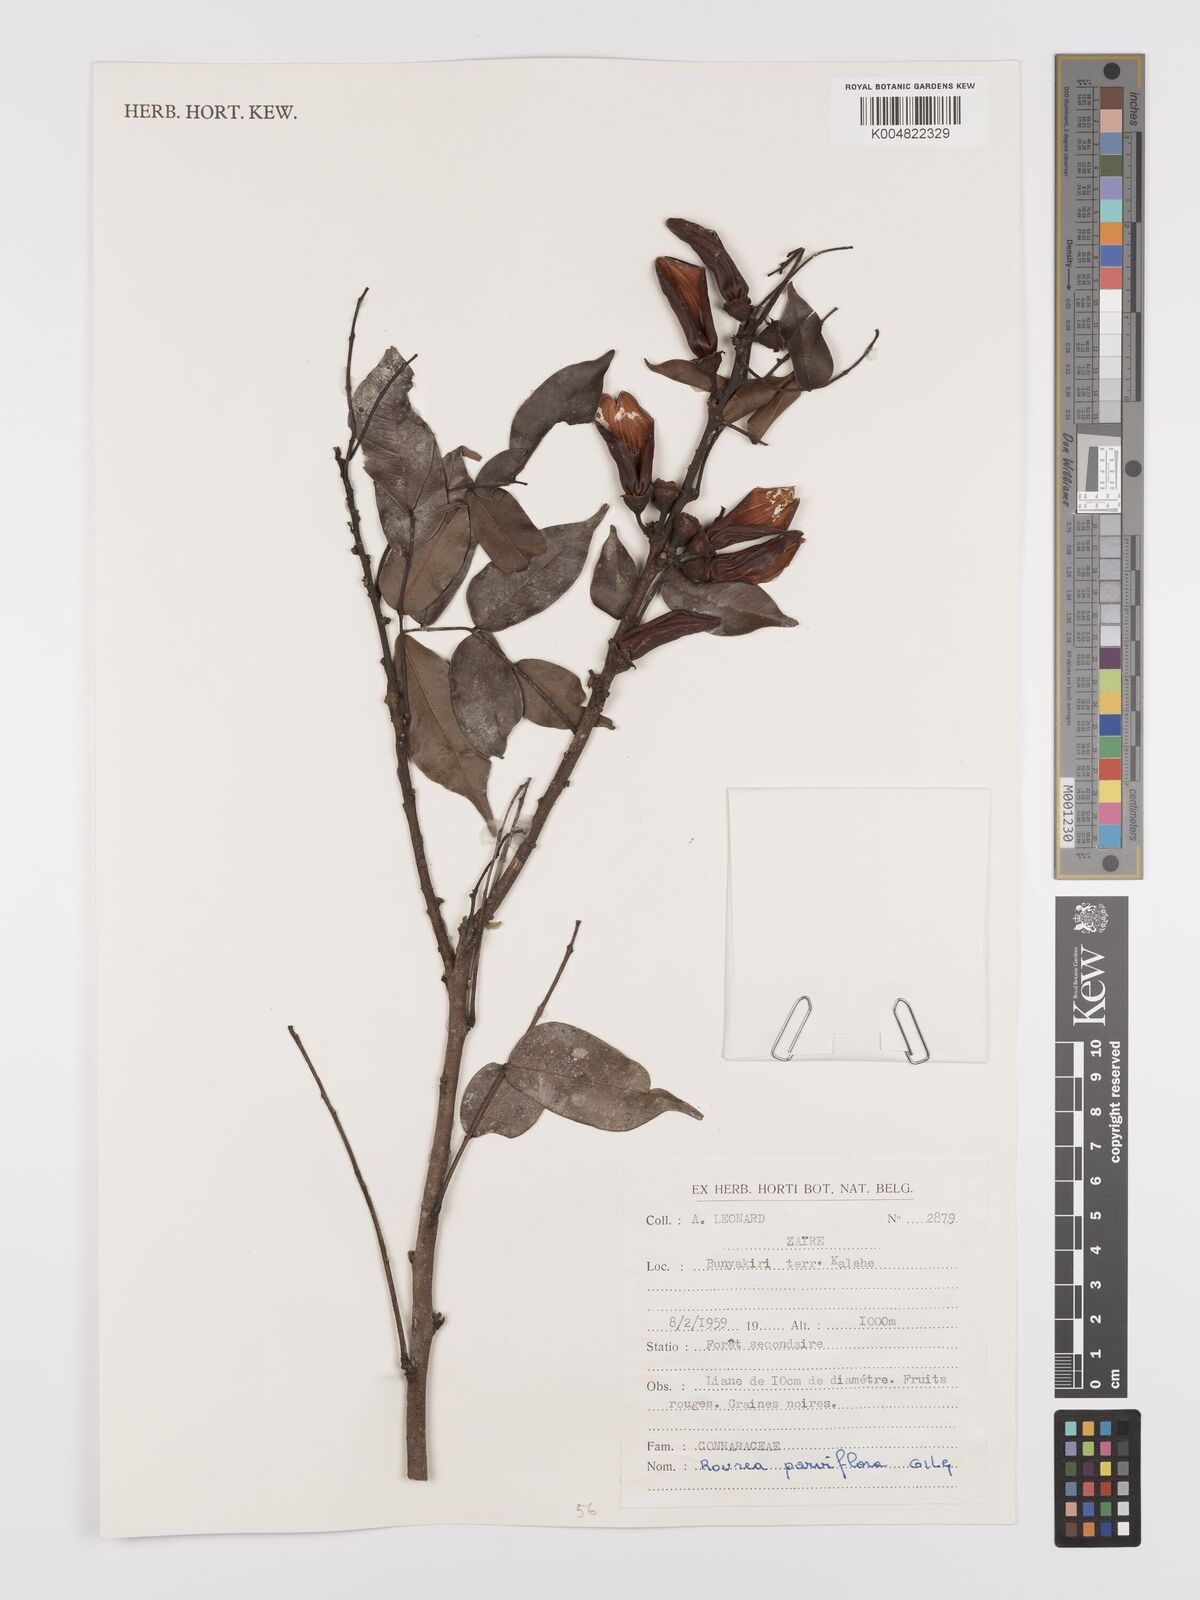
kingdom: Plantae
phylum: Tracheophyta
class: Magnoliopsida
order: Oxalidales
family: Connaraceae
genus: Rourea
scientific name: Rourea
